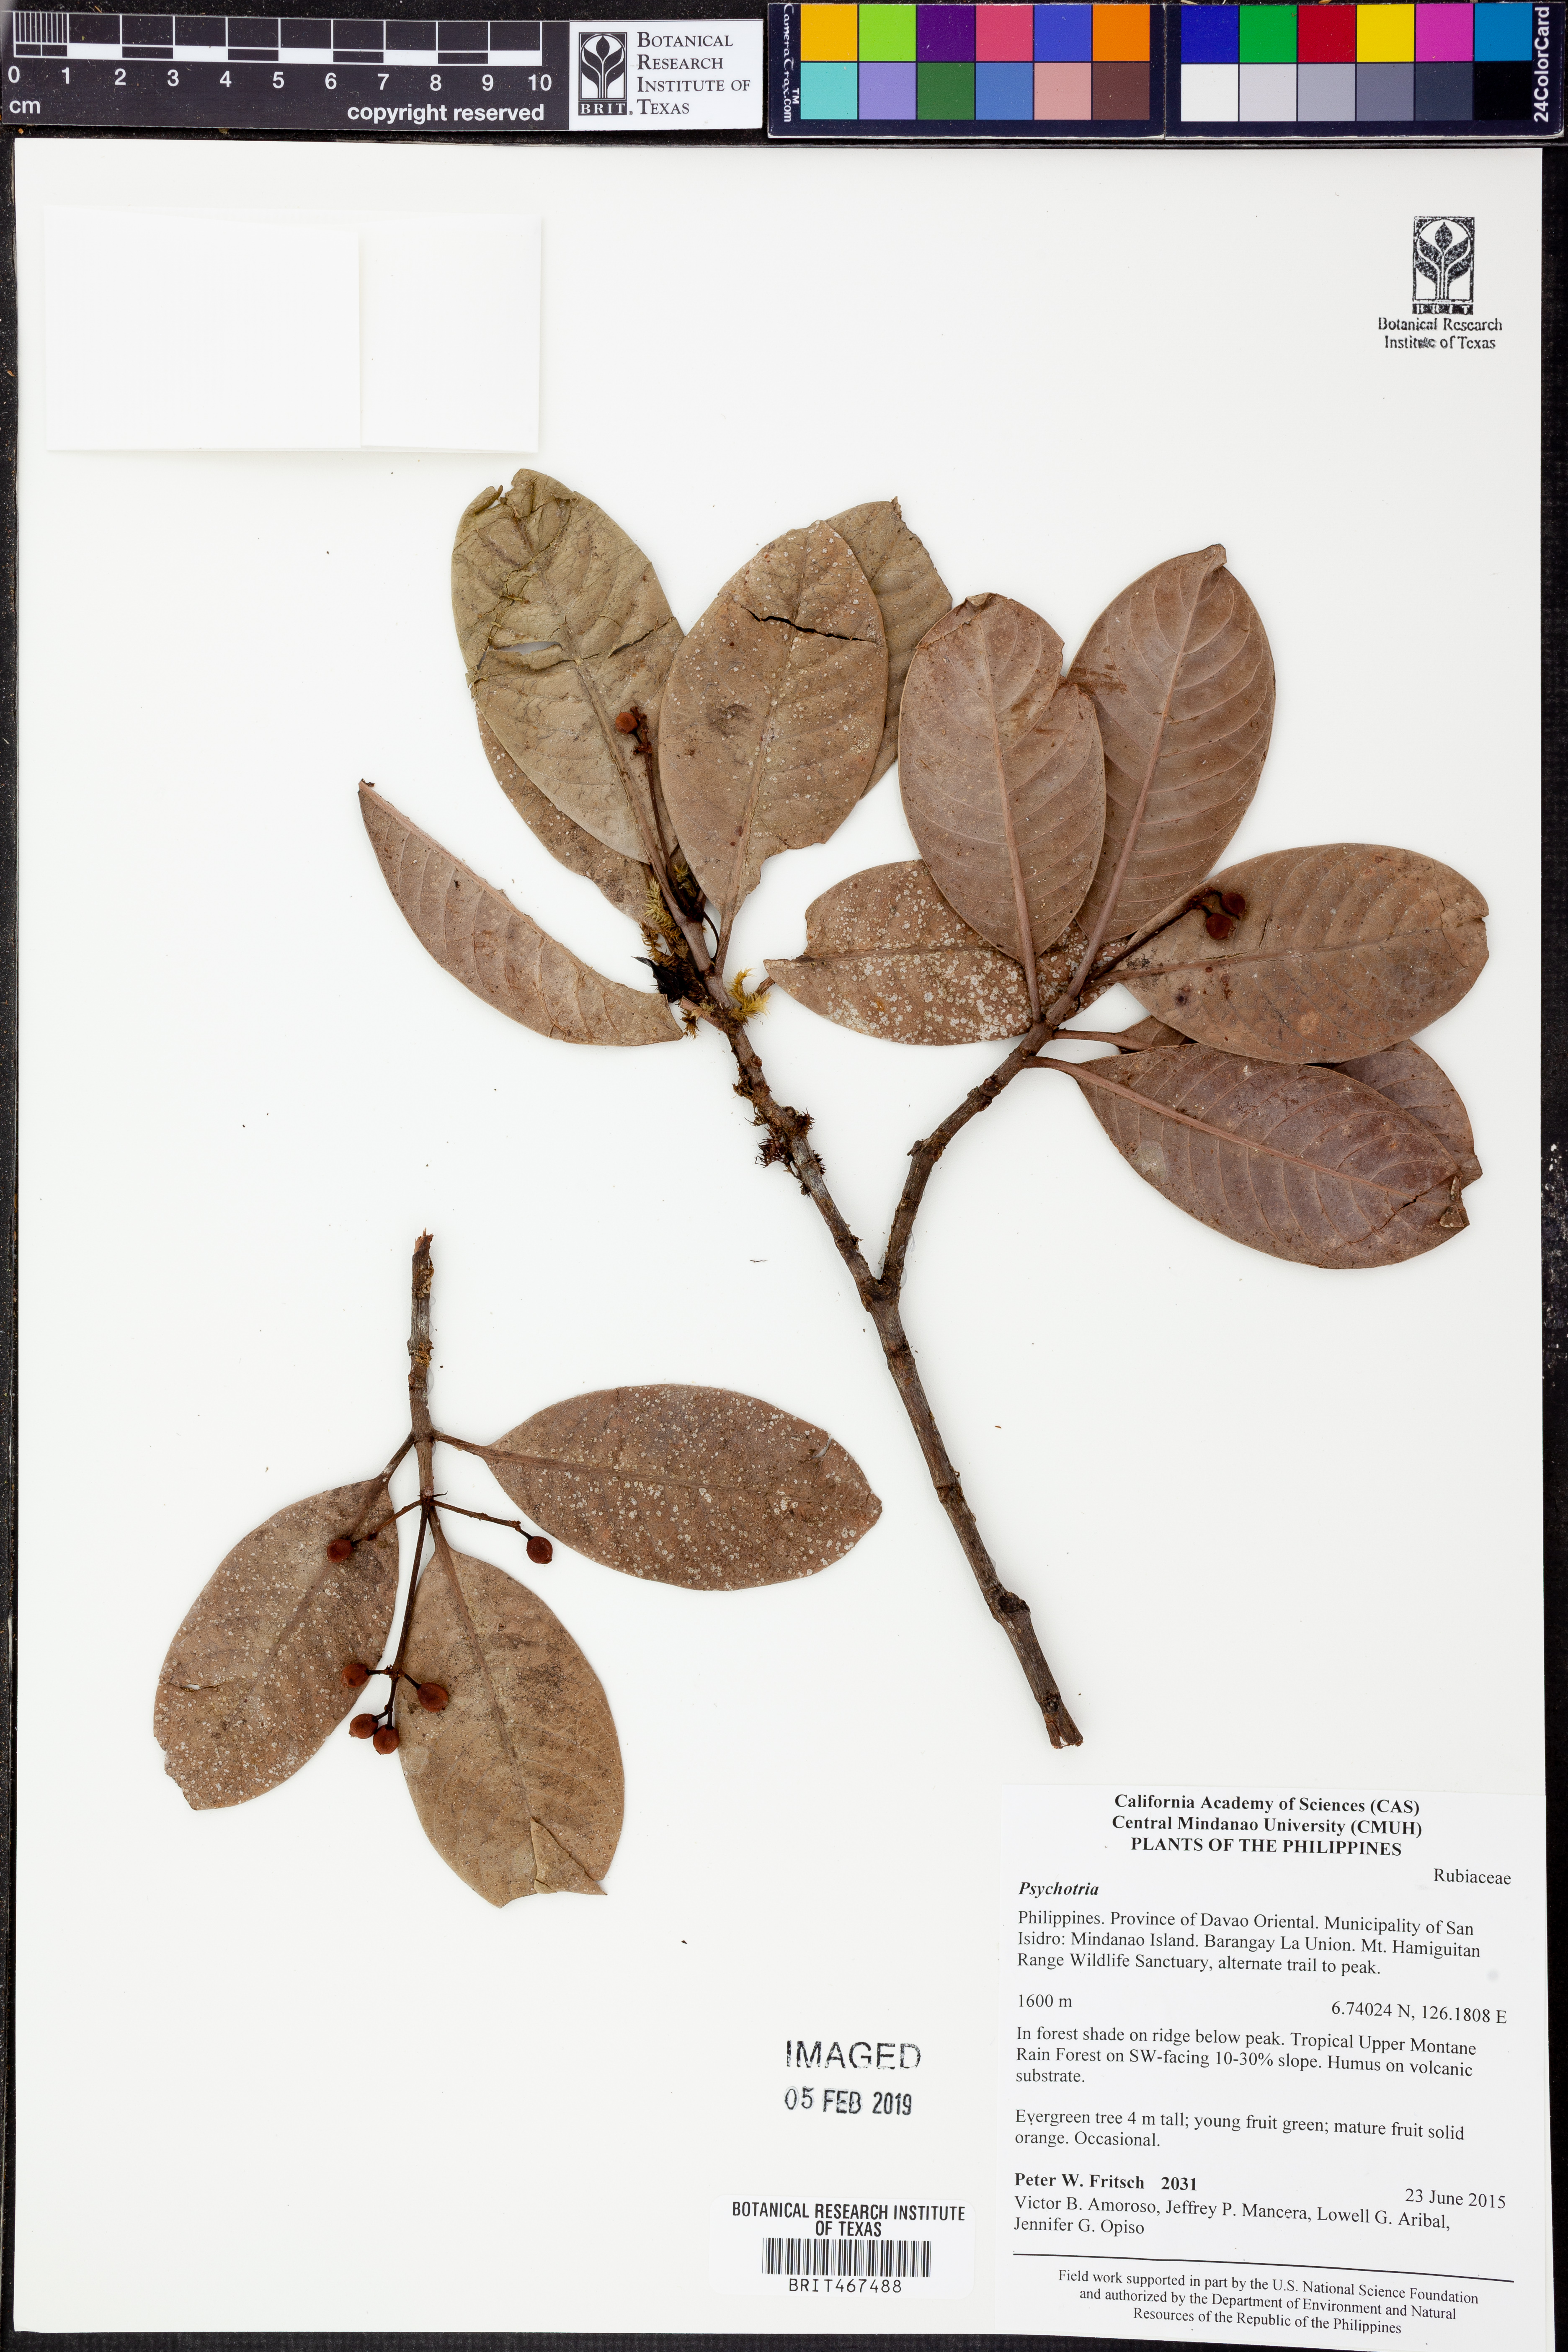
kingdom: Plantae
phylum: Tracheophyta
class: Magnoliopsida
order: Gentianales
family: Rubiaceae
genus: Psychotria
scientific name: Psychotria
